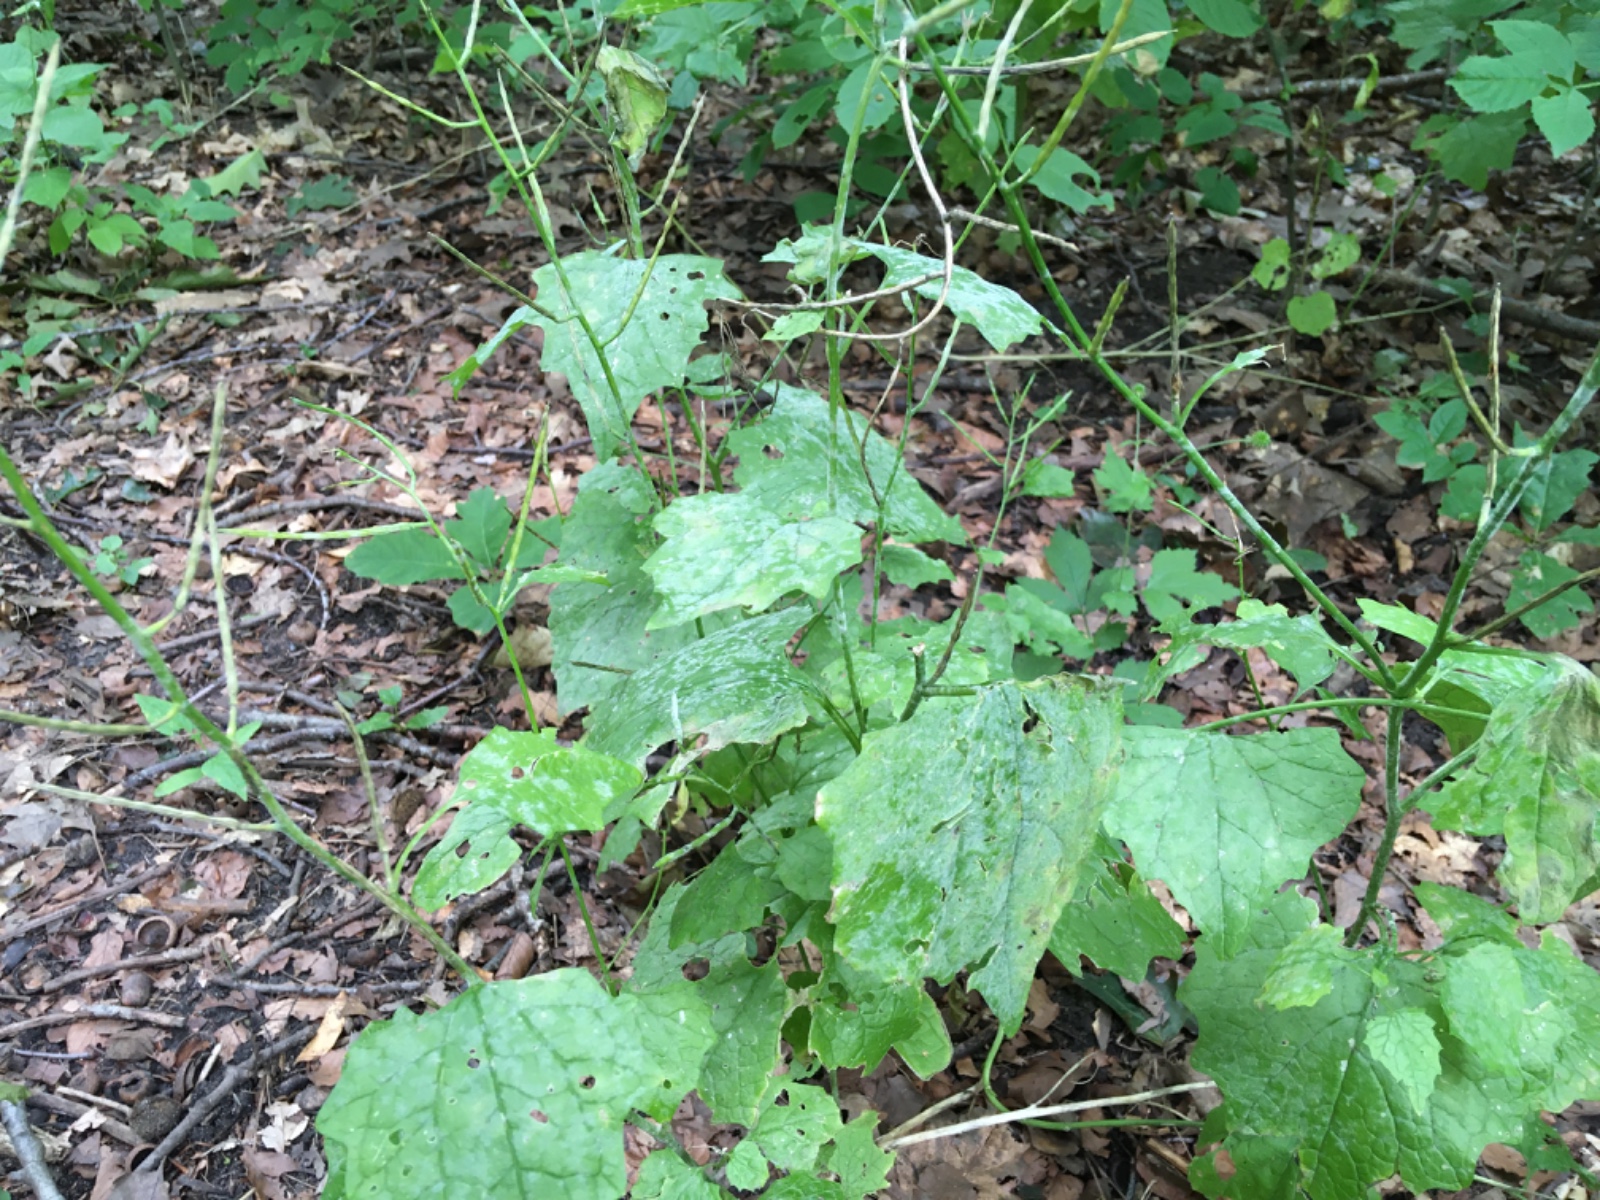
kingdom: Fungi
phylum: Ascomycota
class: Leotiomycetes
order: Helotiales
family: Erysiphaceae
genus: Erysiphe
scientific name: Erysiphe cruciferarum
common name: korsblomst-meldug
